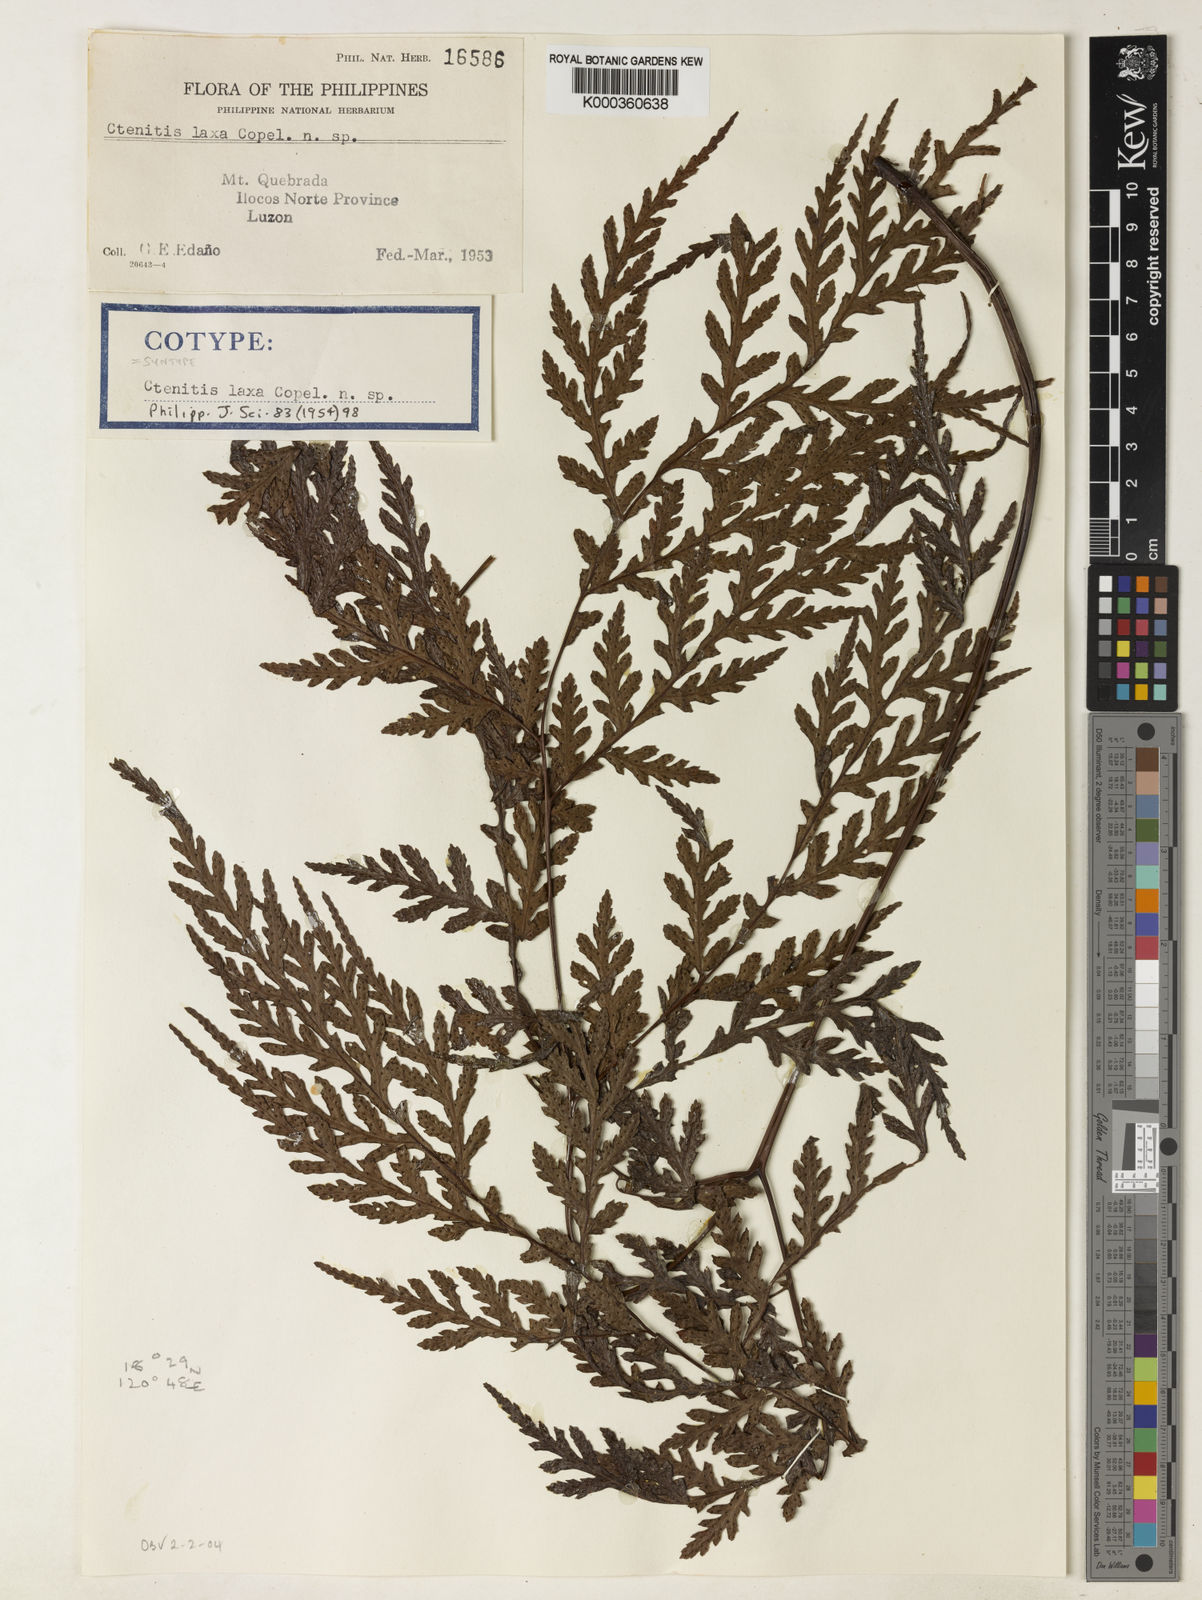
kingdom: Plantae
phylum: Tracheophyta
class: Polypodiopsida
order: Polypodiales
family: Tectariaceae
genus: Tectaria
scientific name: Tectaria laxa
